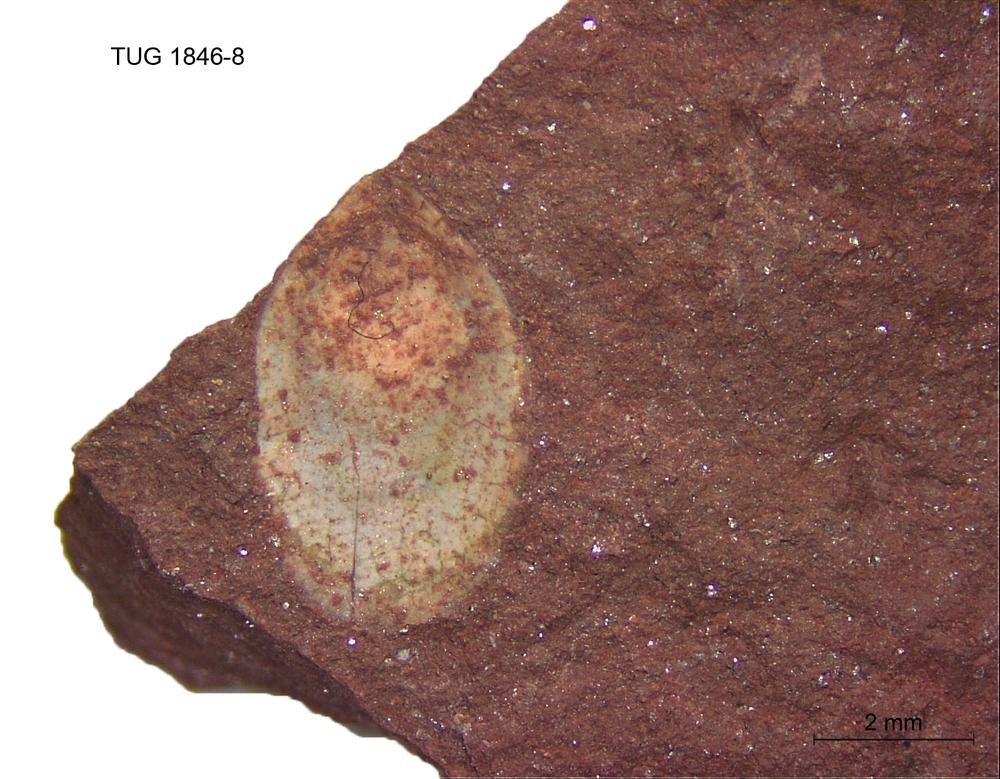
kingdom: Animalia
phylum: Brachiopoda
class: Lingulata
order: Lingulida
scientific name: Lingulida
